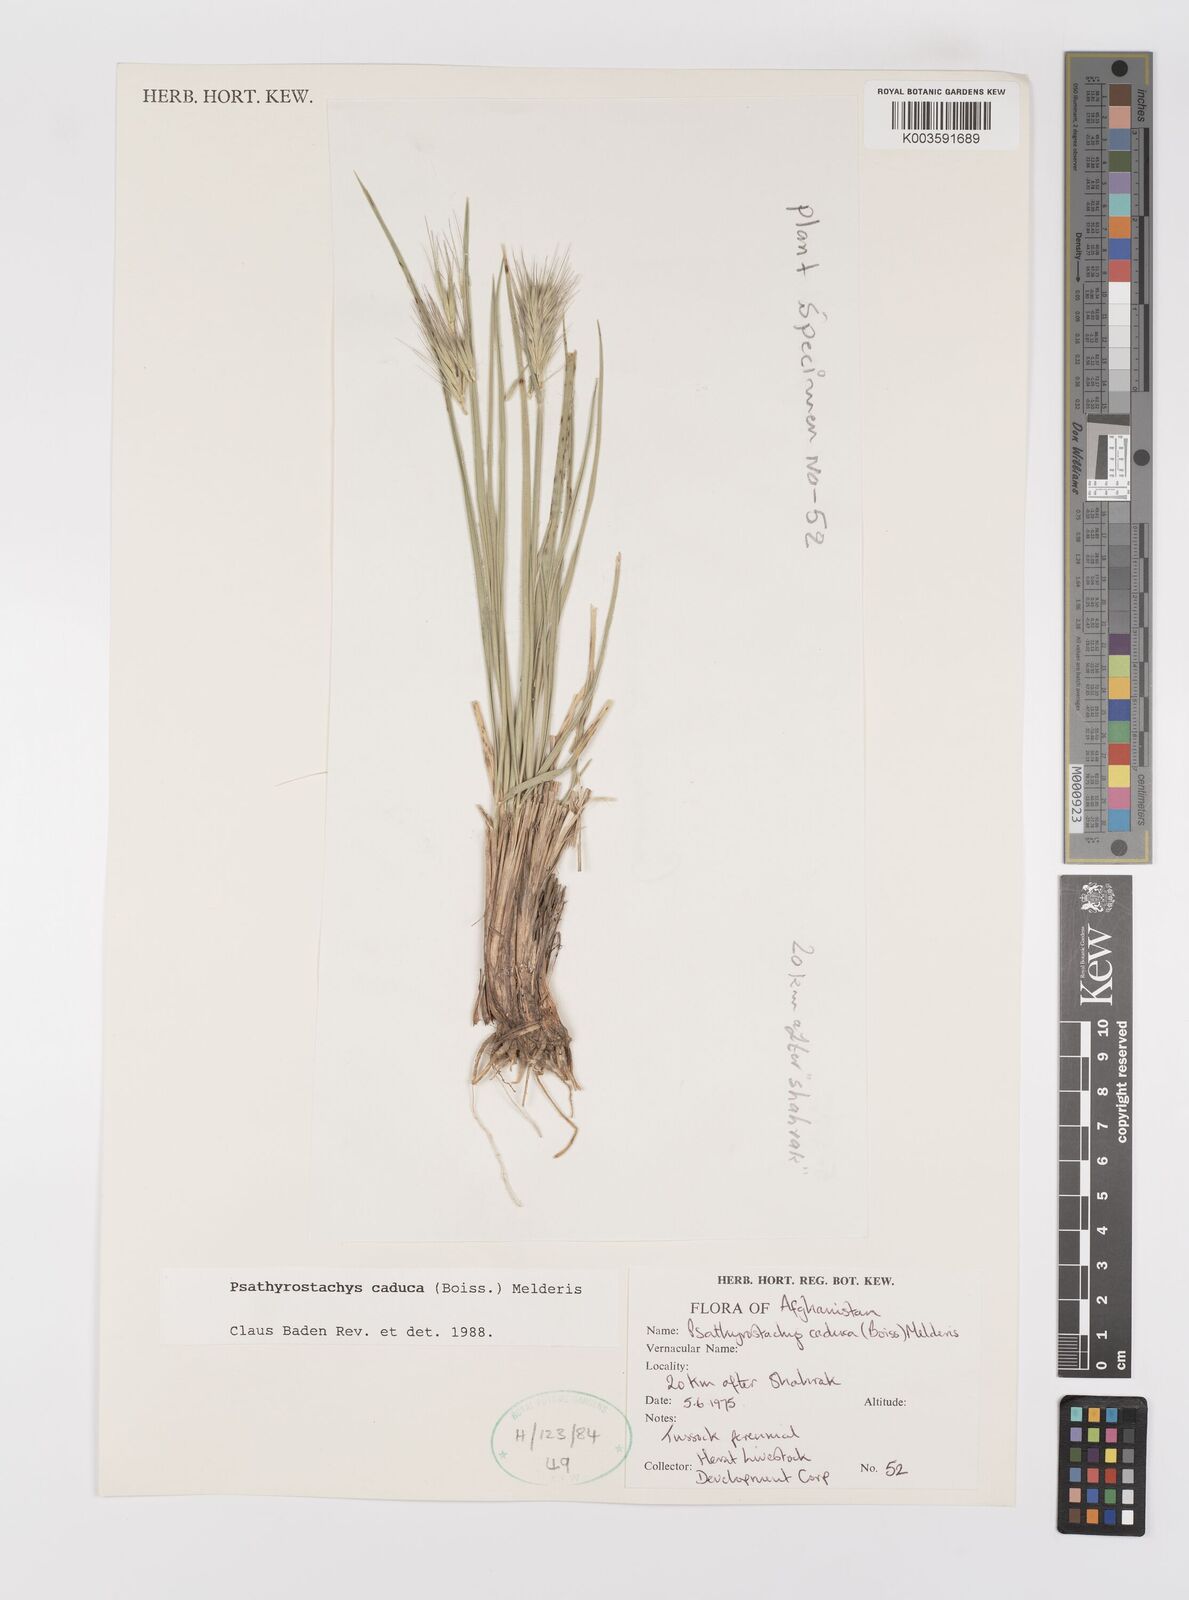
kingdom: Plantae
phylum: Tracheophyta
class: Liliopsida
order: Poales
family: Poaceae
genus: Psathyrostachys
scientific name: Psathyrostachys caduca
